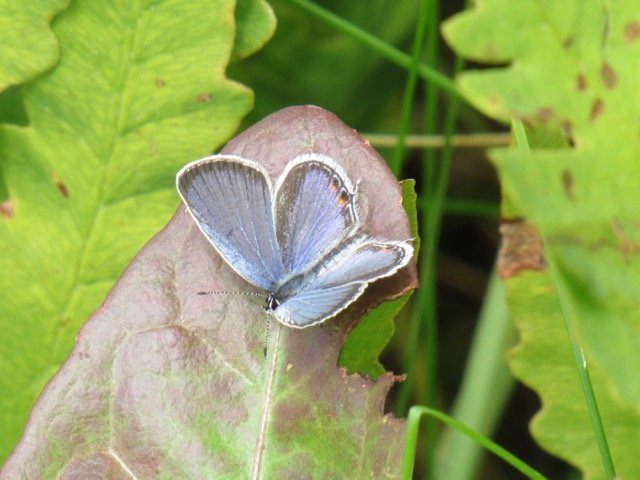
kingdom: Animalia
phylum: Arthropoda
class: Insecta
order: Lepidoptera
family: Lycaenidae
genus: Elkalyce
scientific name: Elkalyce comyntas
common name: Eastern Tailed-Blue
